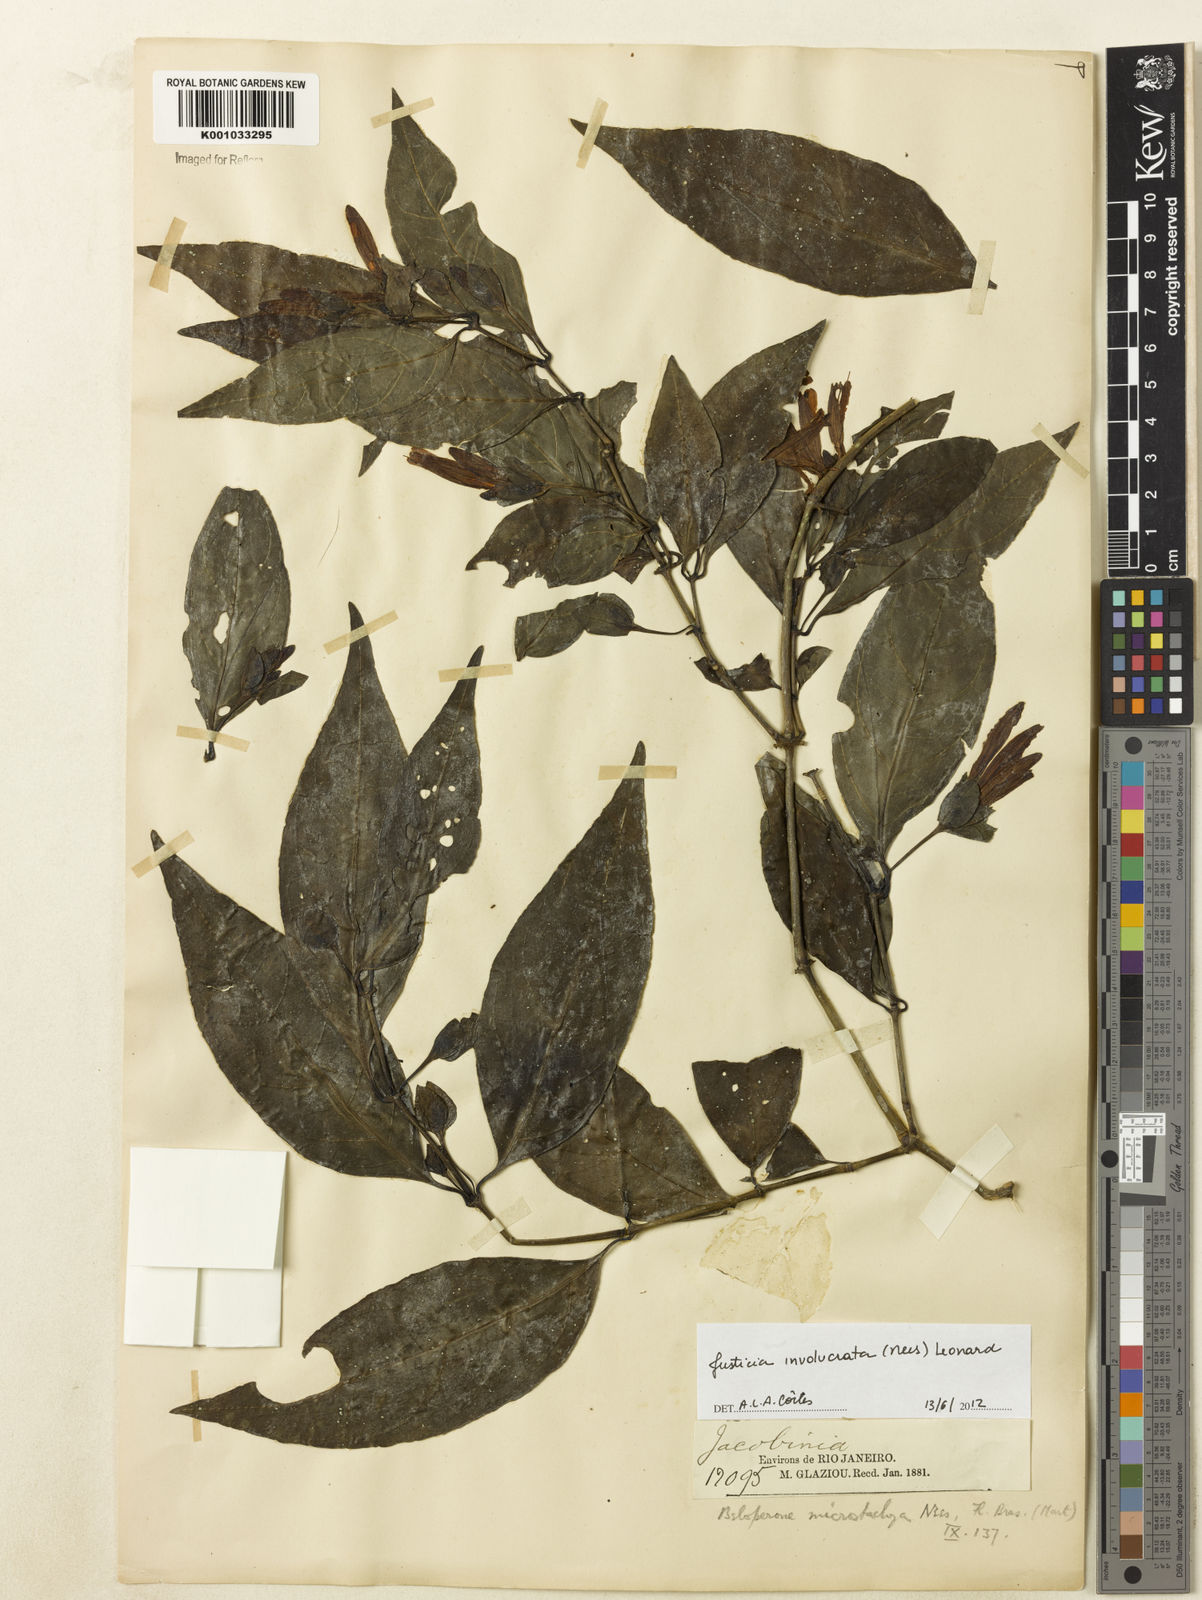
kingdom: Plantae
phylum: Tracheophyta
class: Magnoliopsida
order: Lamiales
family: Acanthaceae
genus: Justicia
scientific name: Justicia involucrata
